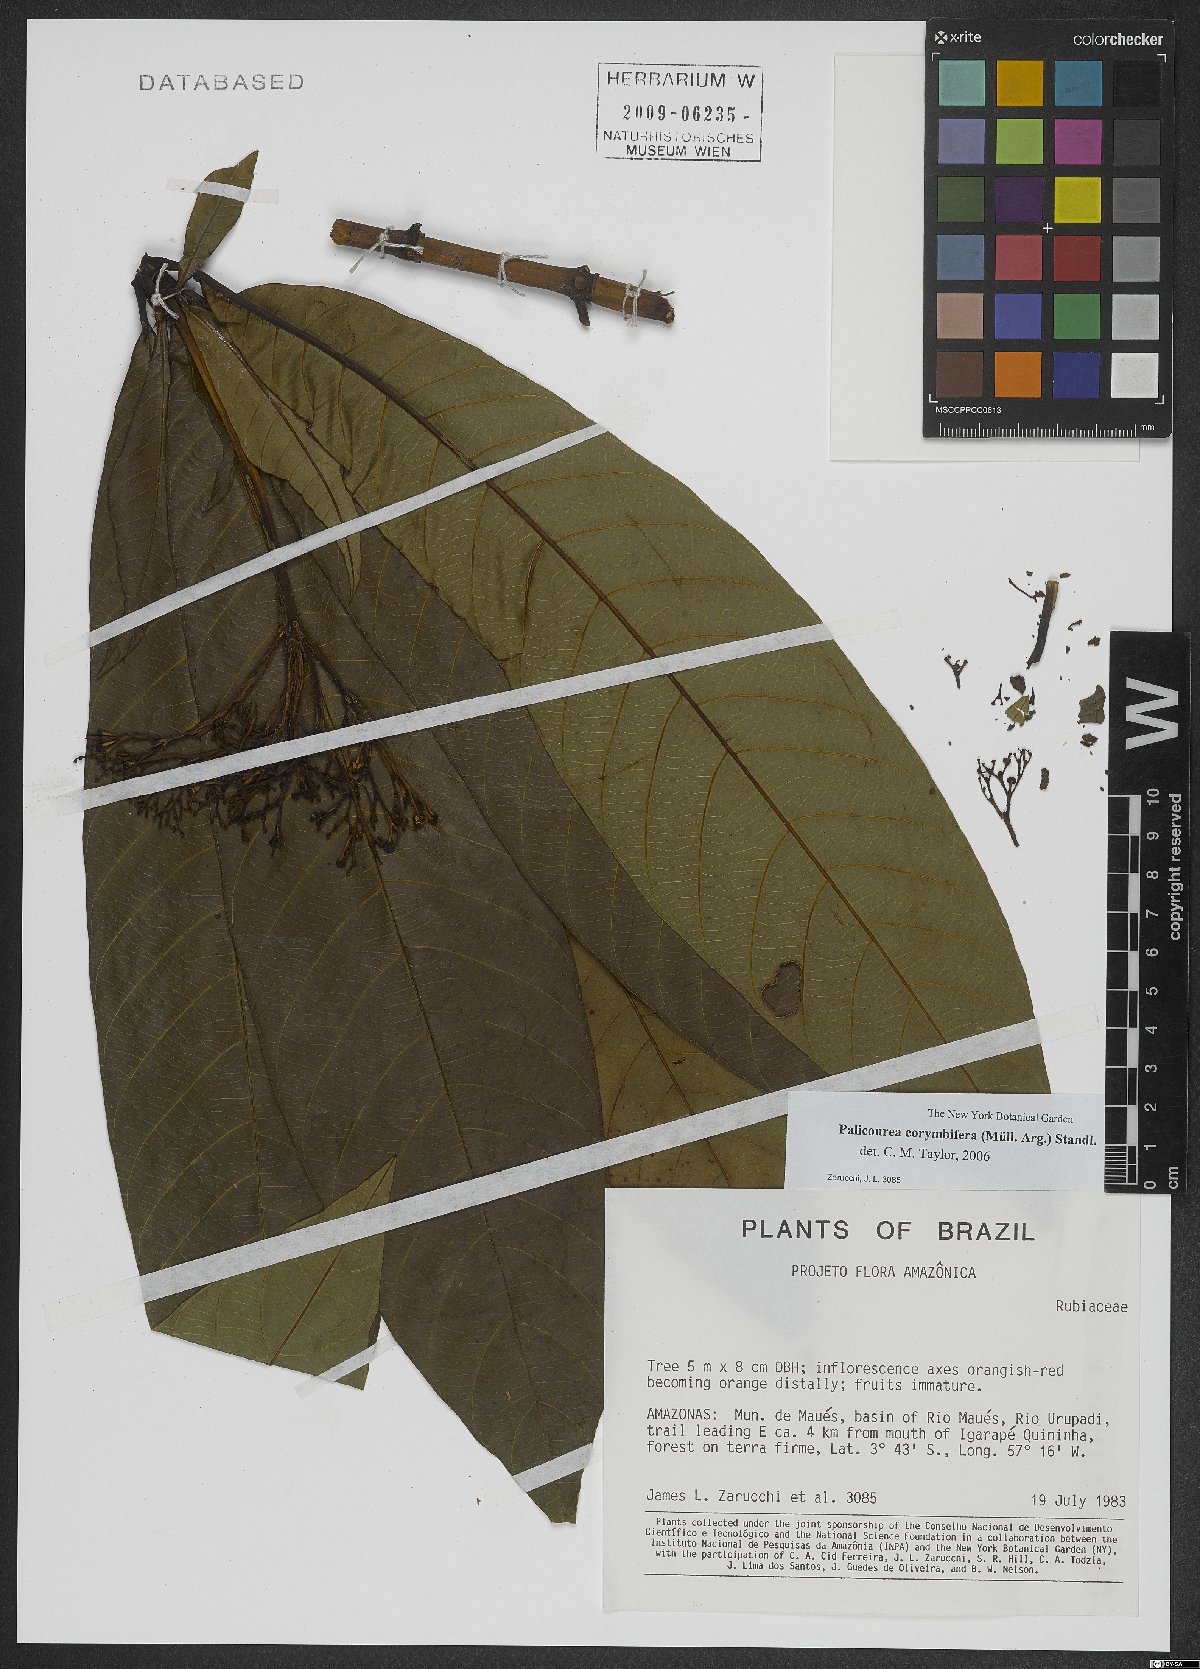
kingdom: Plantae
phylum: Tracheophyta
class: Magnoliopsida
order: Gentianales
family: Rubiaceae
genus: Palicourea
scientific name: Palicourea corymbifera
